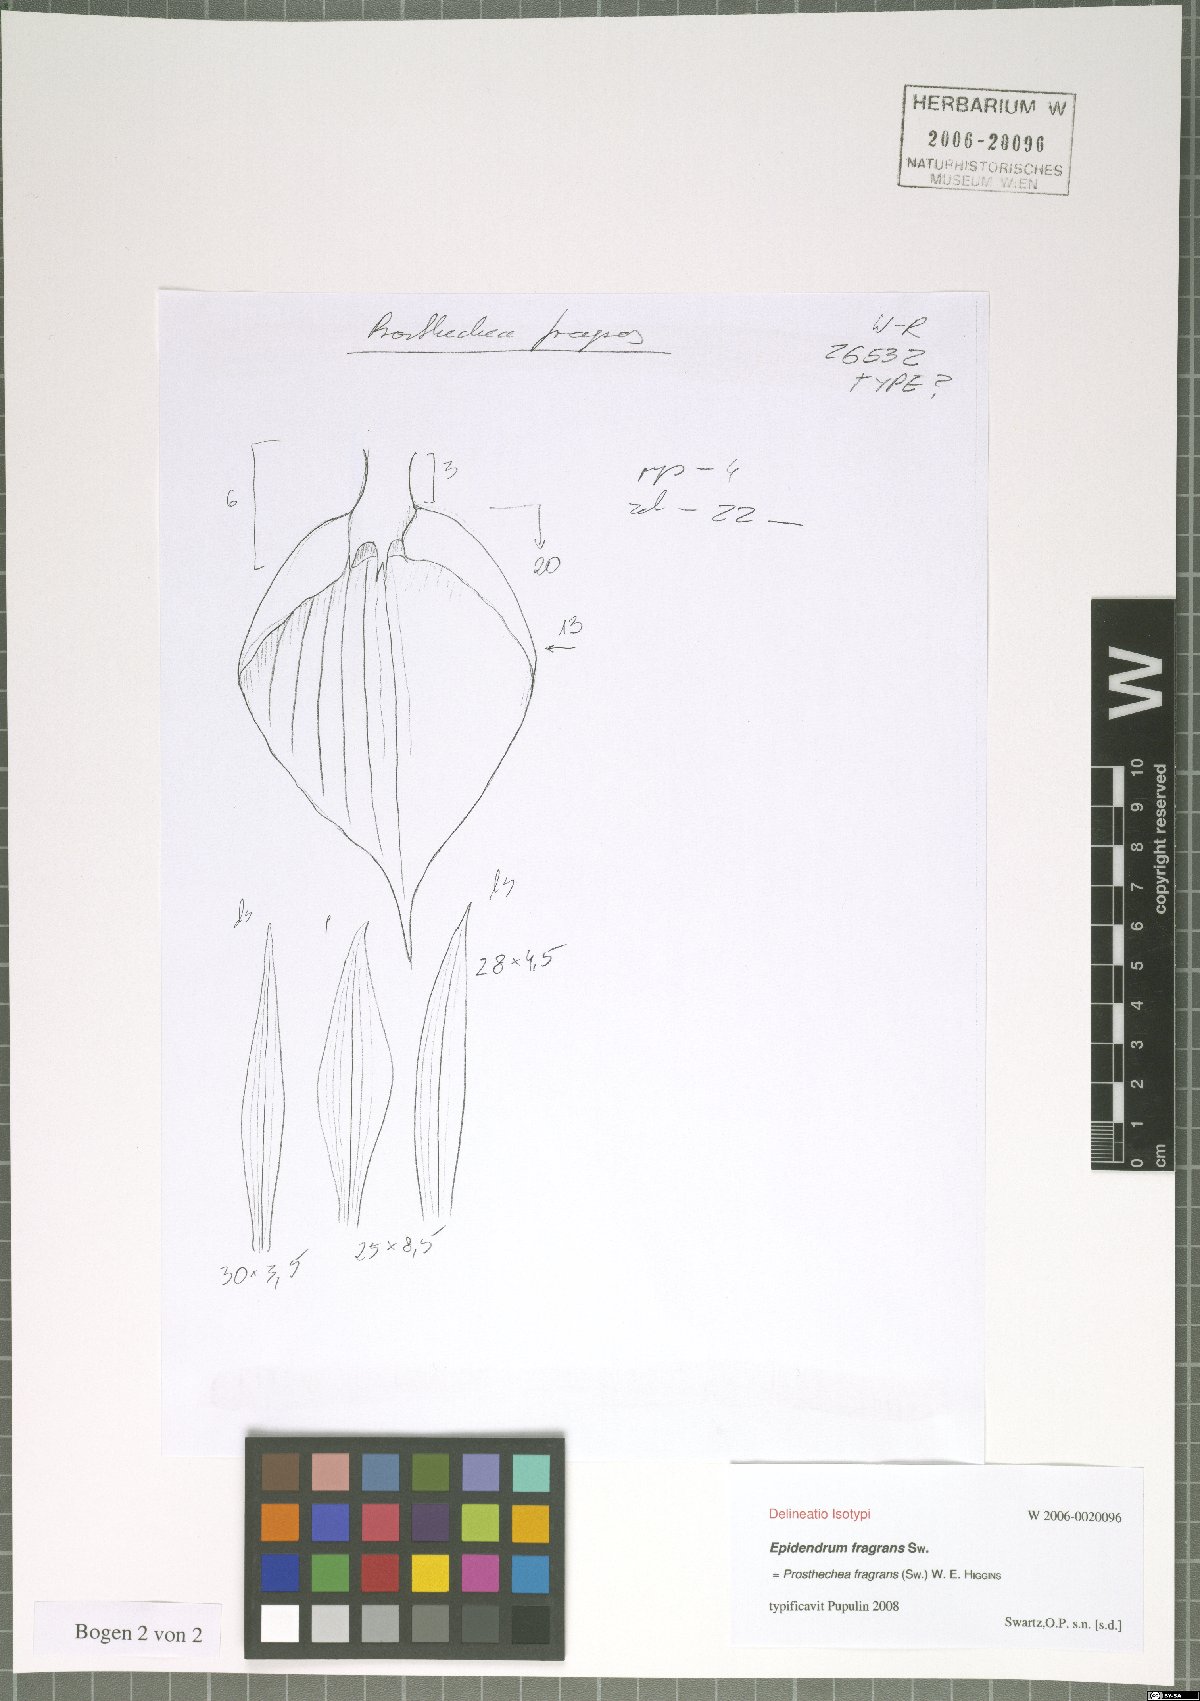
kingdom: Plantae
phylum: Tracheophyta
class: Liliopsida
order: Asparagales
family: Orchidaceae
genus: Prosthechea
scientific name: Prosthechea fragrans
